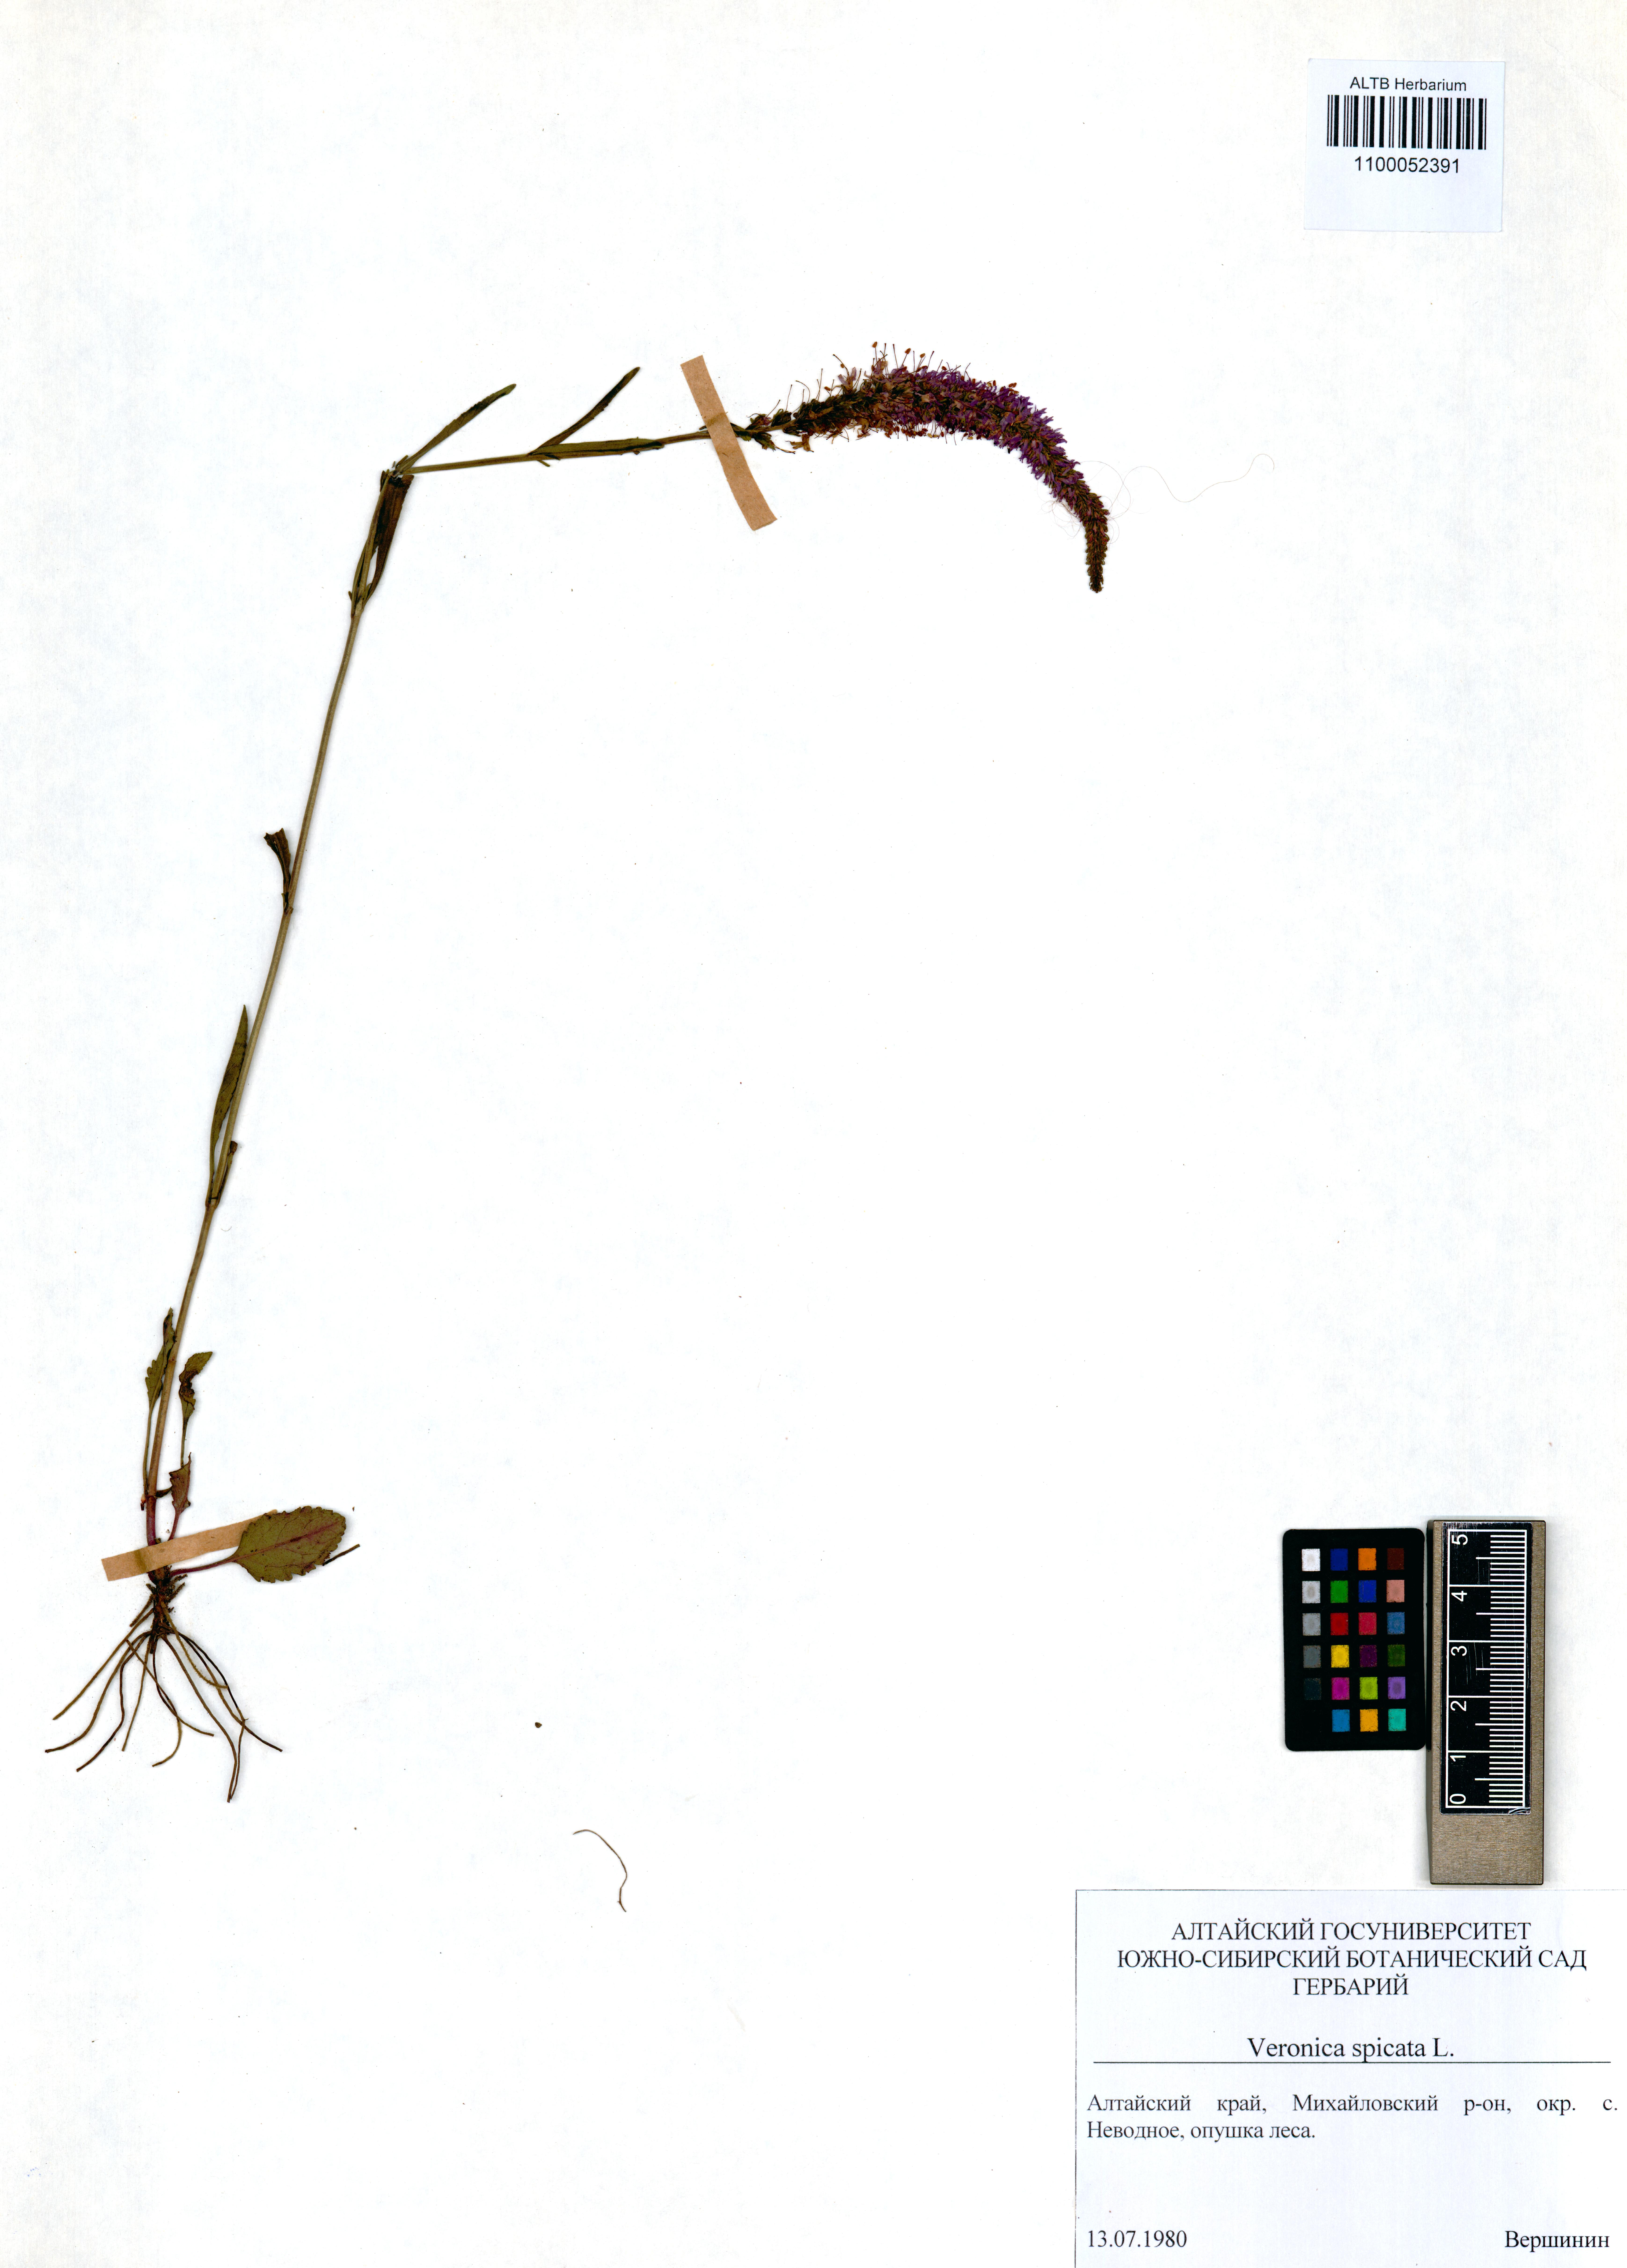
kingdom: Plantae
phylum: Tracheophyta
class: Magnoliopsida
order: Lamiales
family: Plantaginaceae
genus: Veronica
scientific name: Veronica spicata
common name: Spiked speedwell
